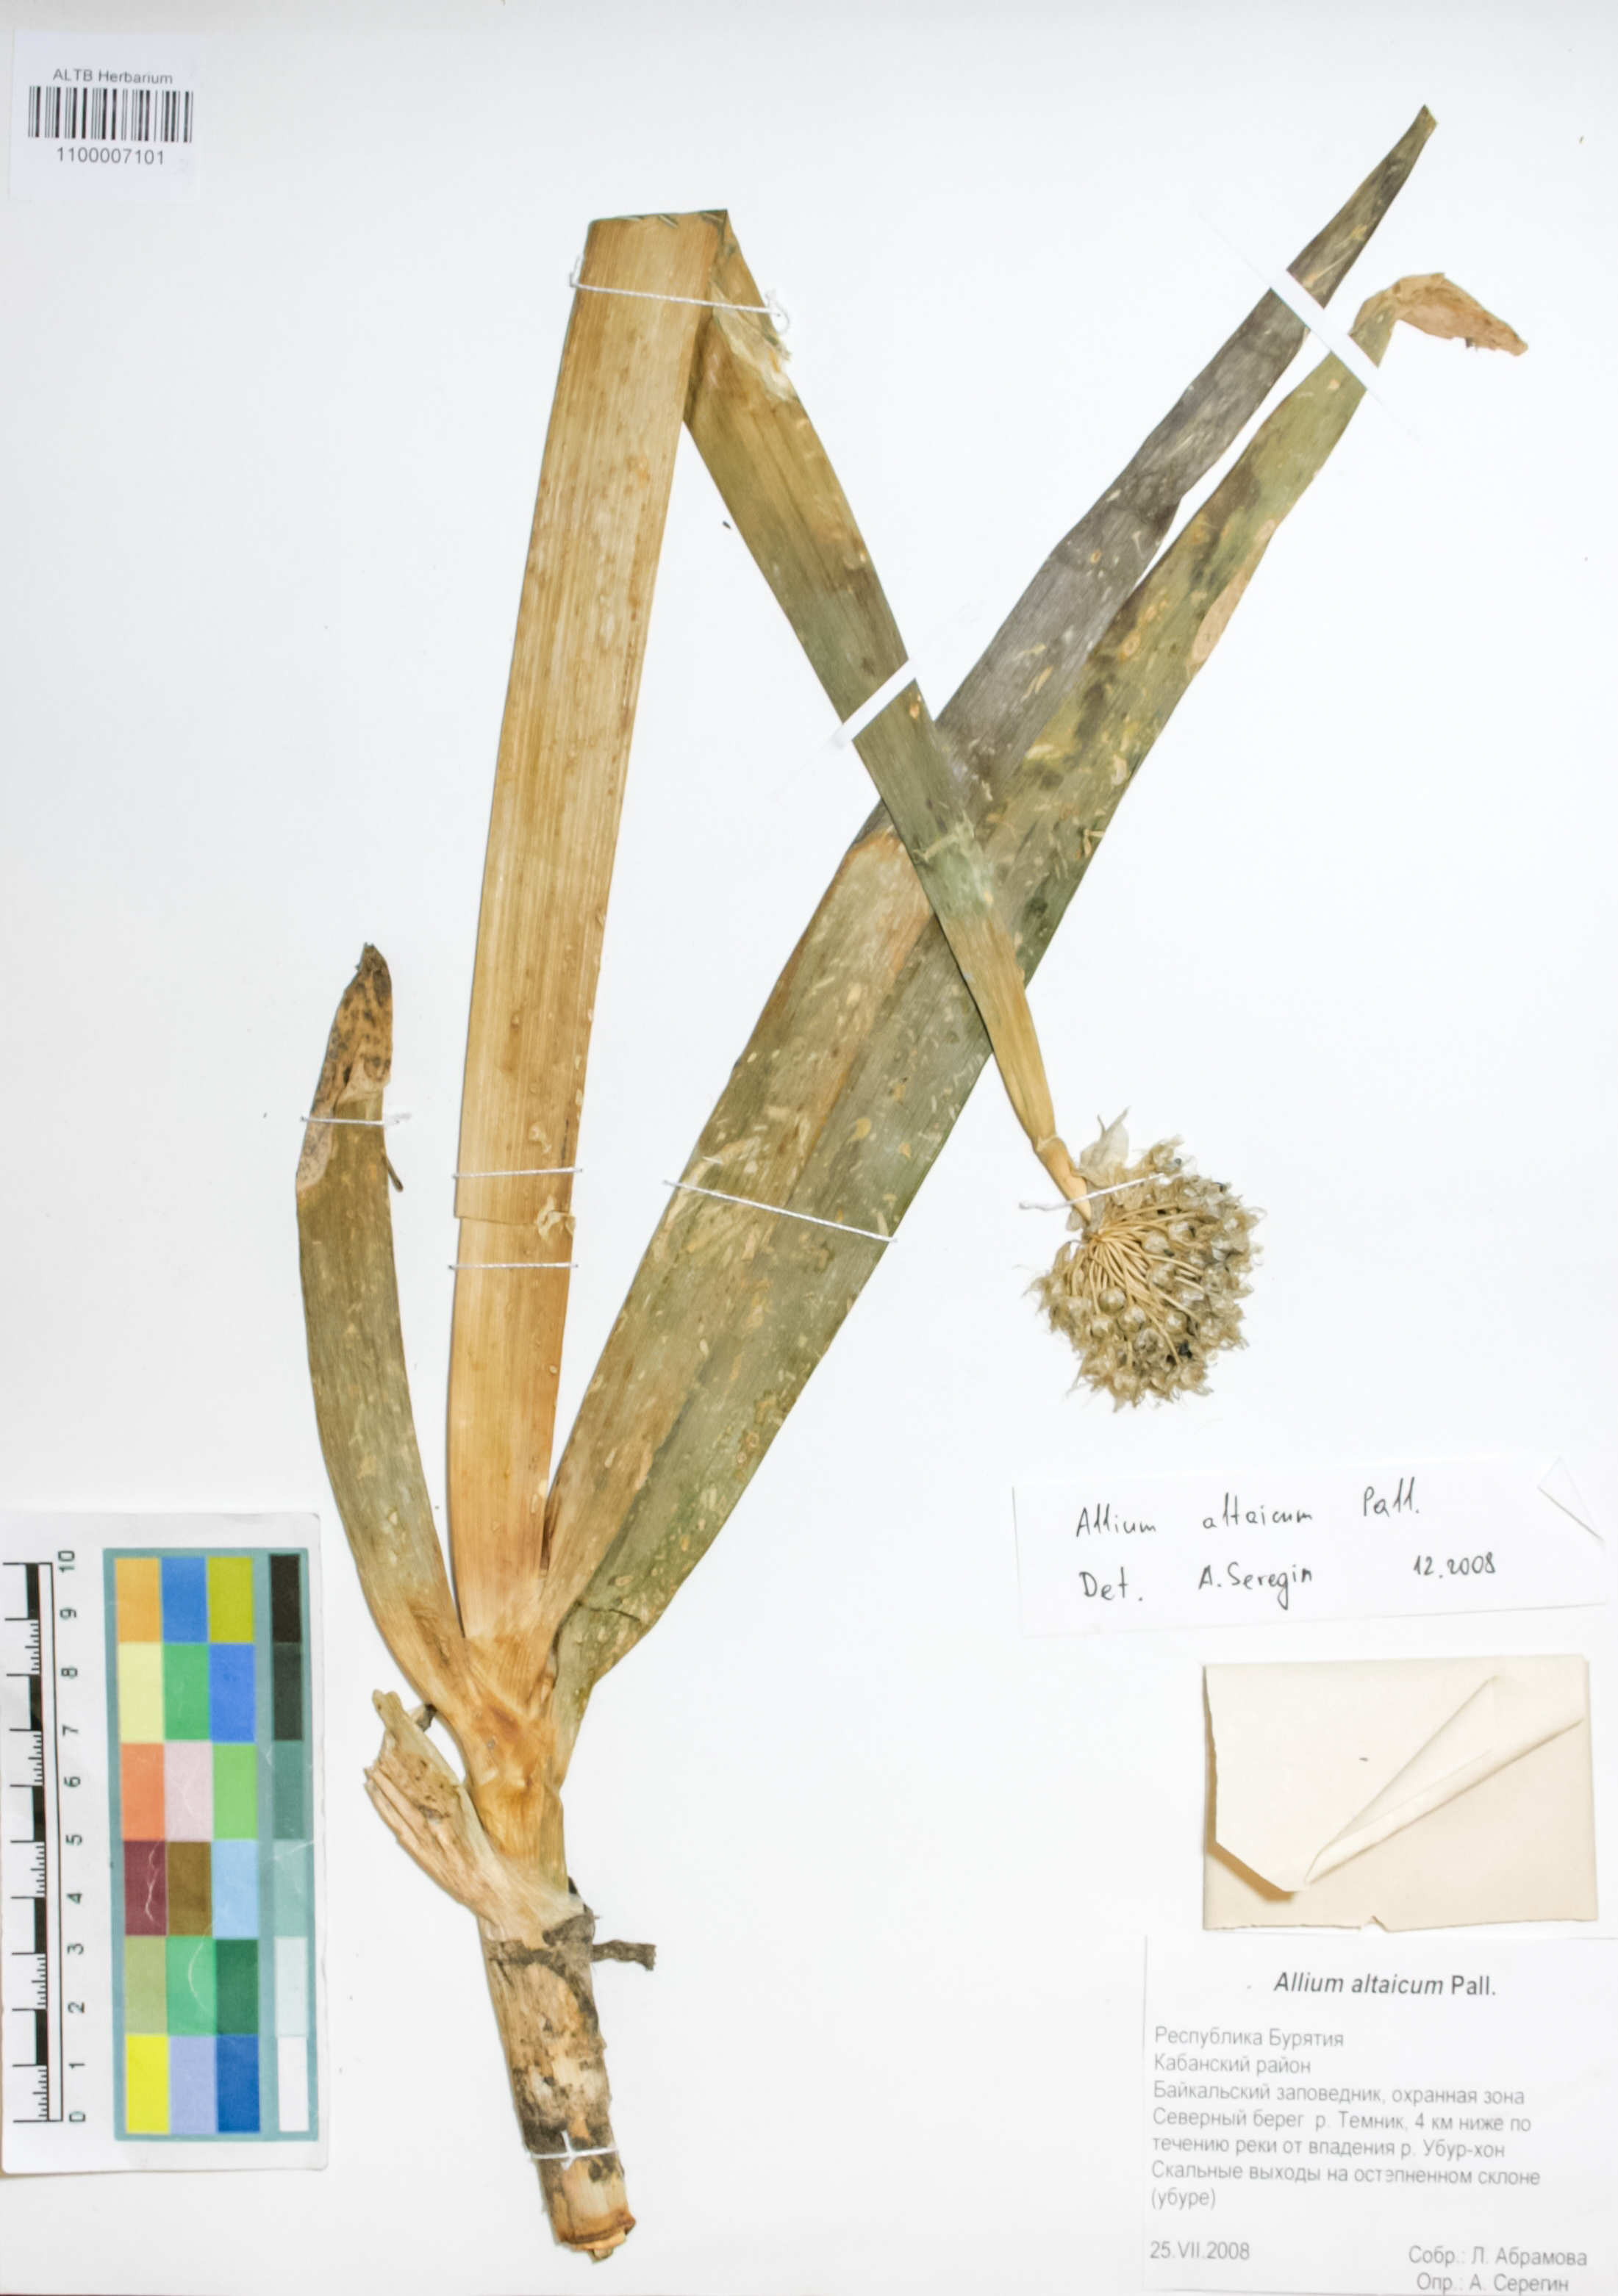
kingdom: Plantae
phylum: Tracheophyta
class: Liliopsida
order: Asparagales
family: Amaryllidaceae
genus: Allium
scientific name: Allium altaicum
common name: Altai onion
